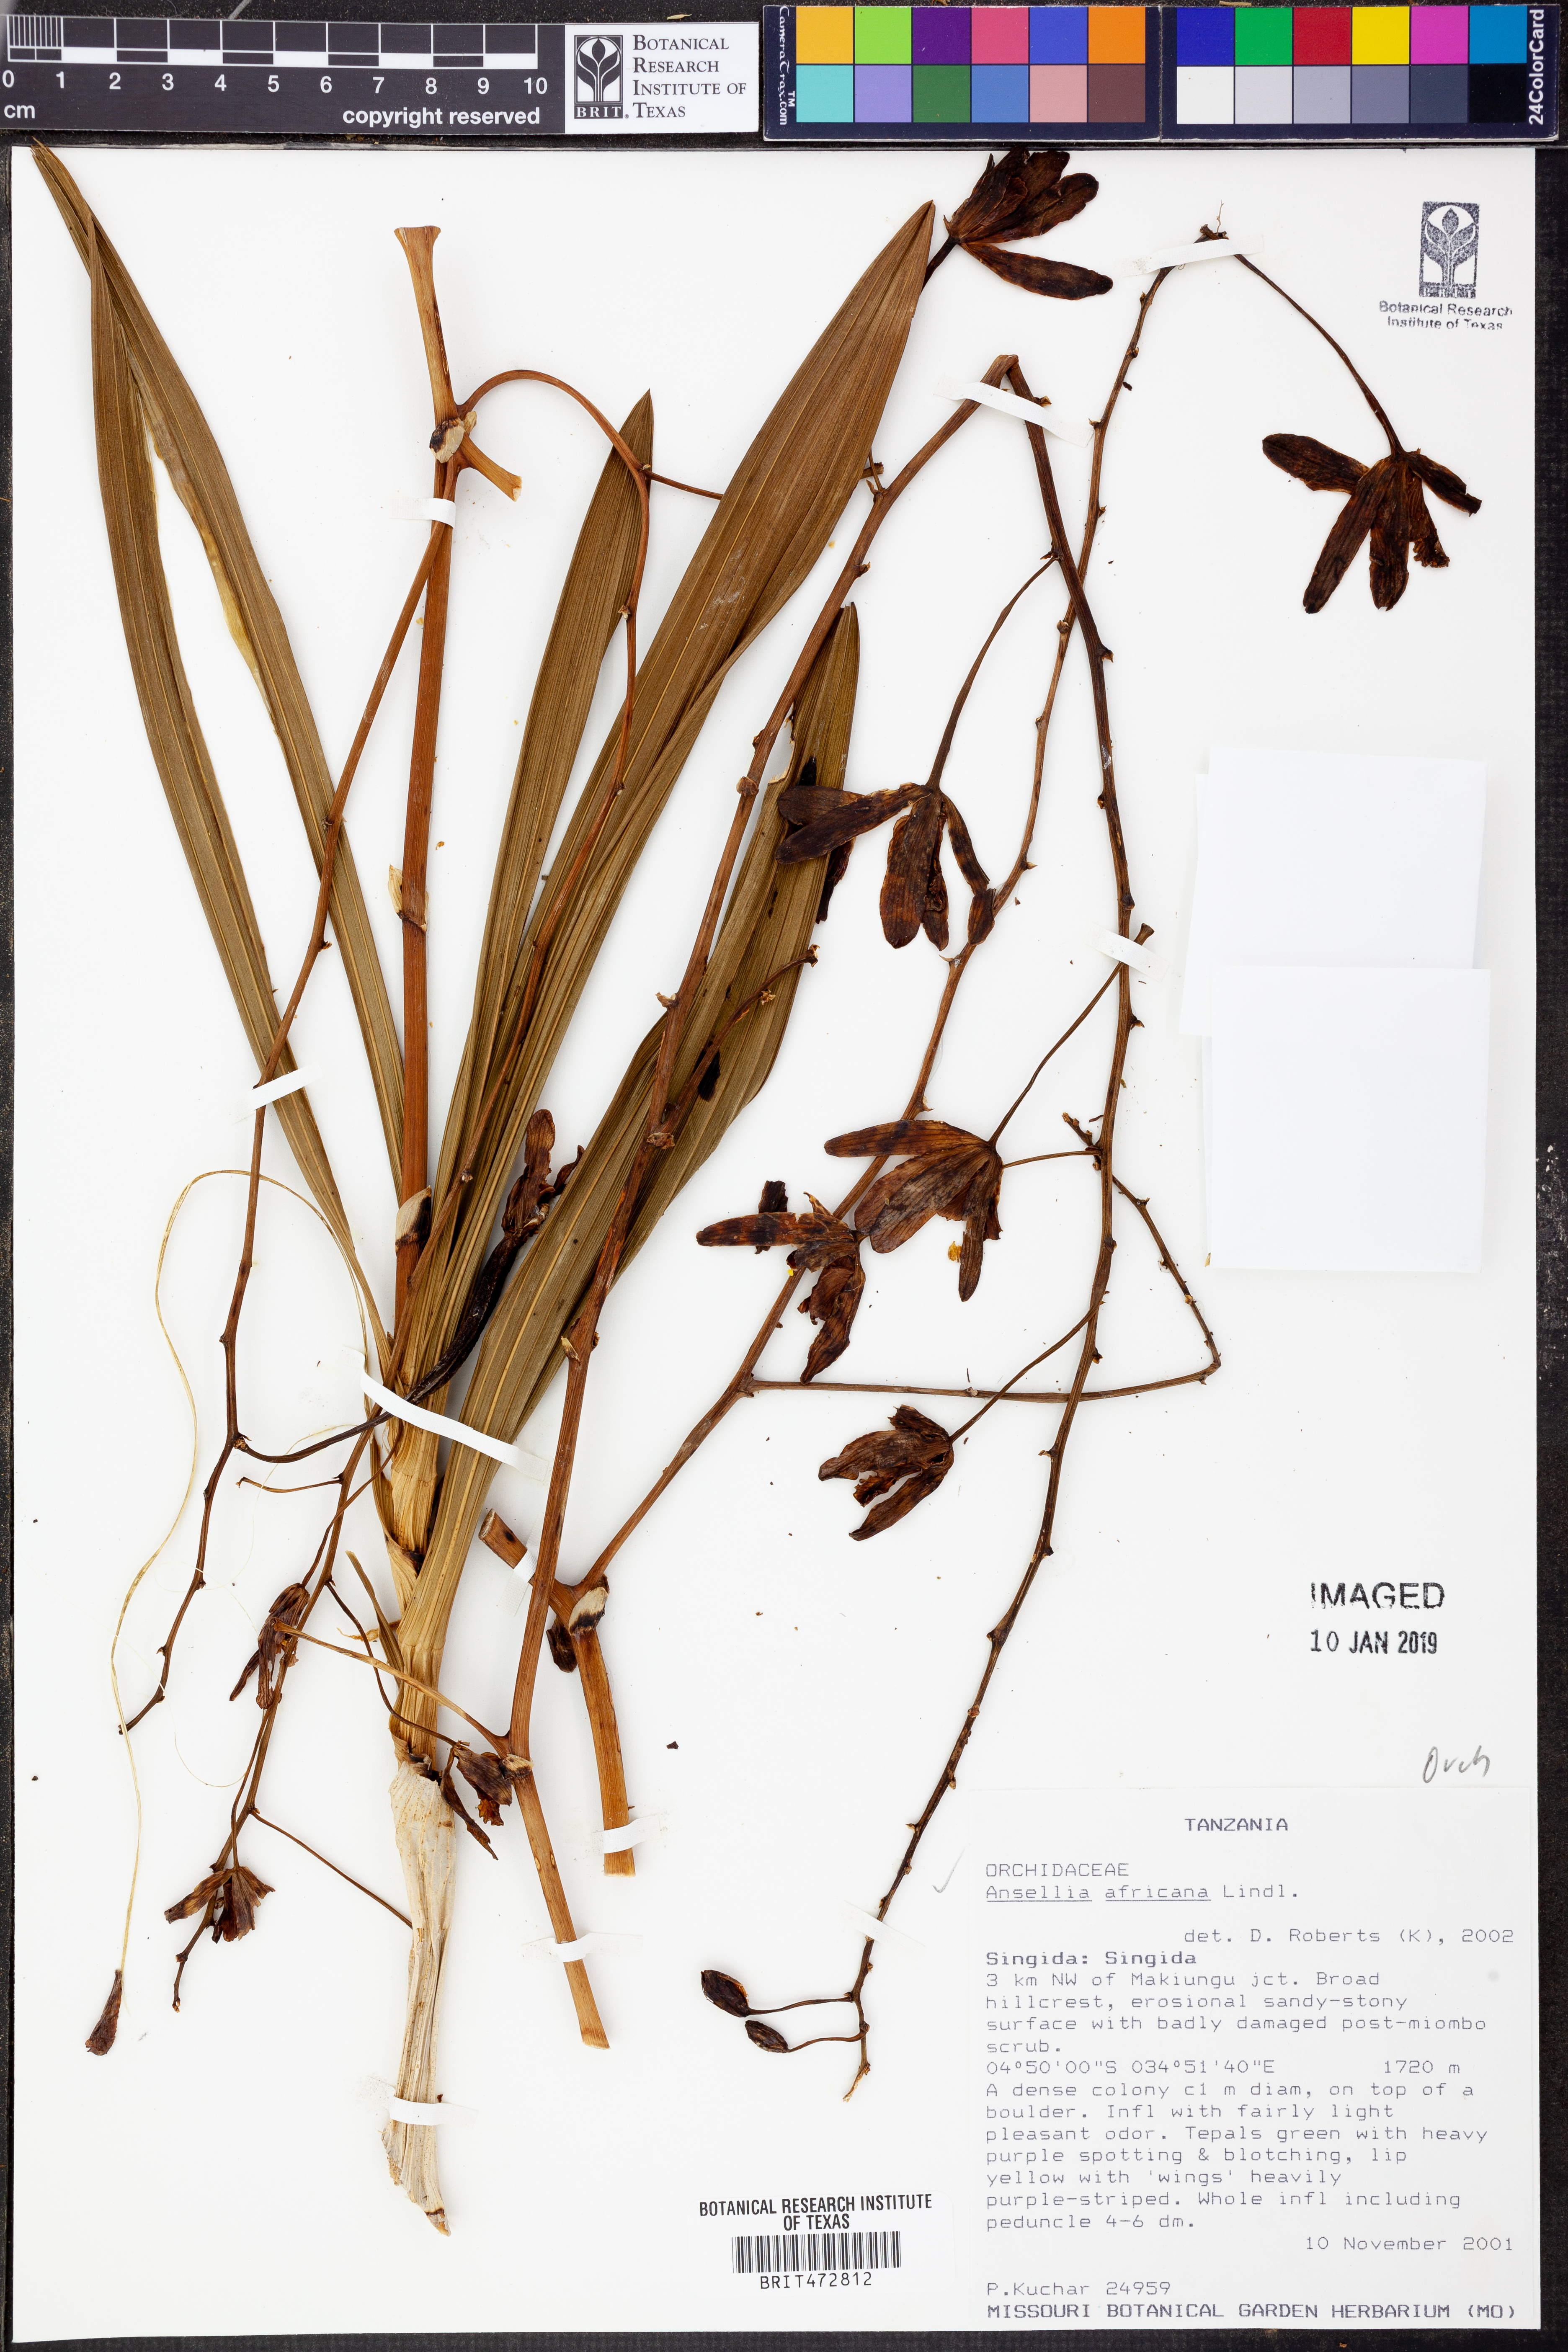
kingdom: Plantae
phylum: Tracheophyta
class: Liliopsida
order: Asparagales
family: Orchidaceae
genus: Ansellia
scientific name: Ansellia africana
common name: African ansellia
